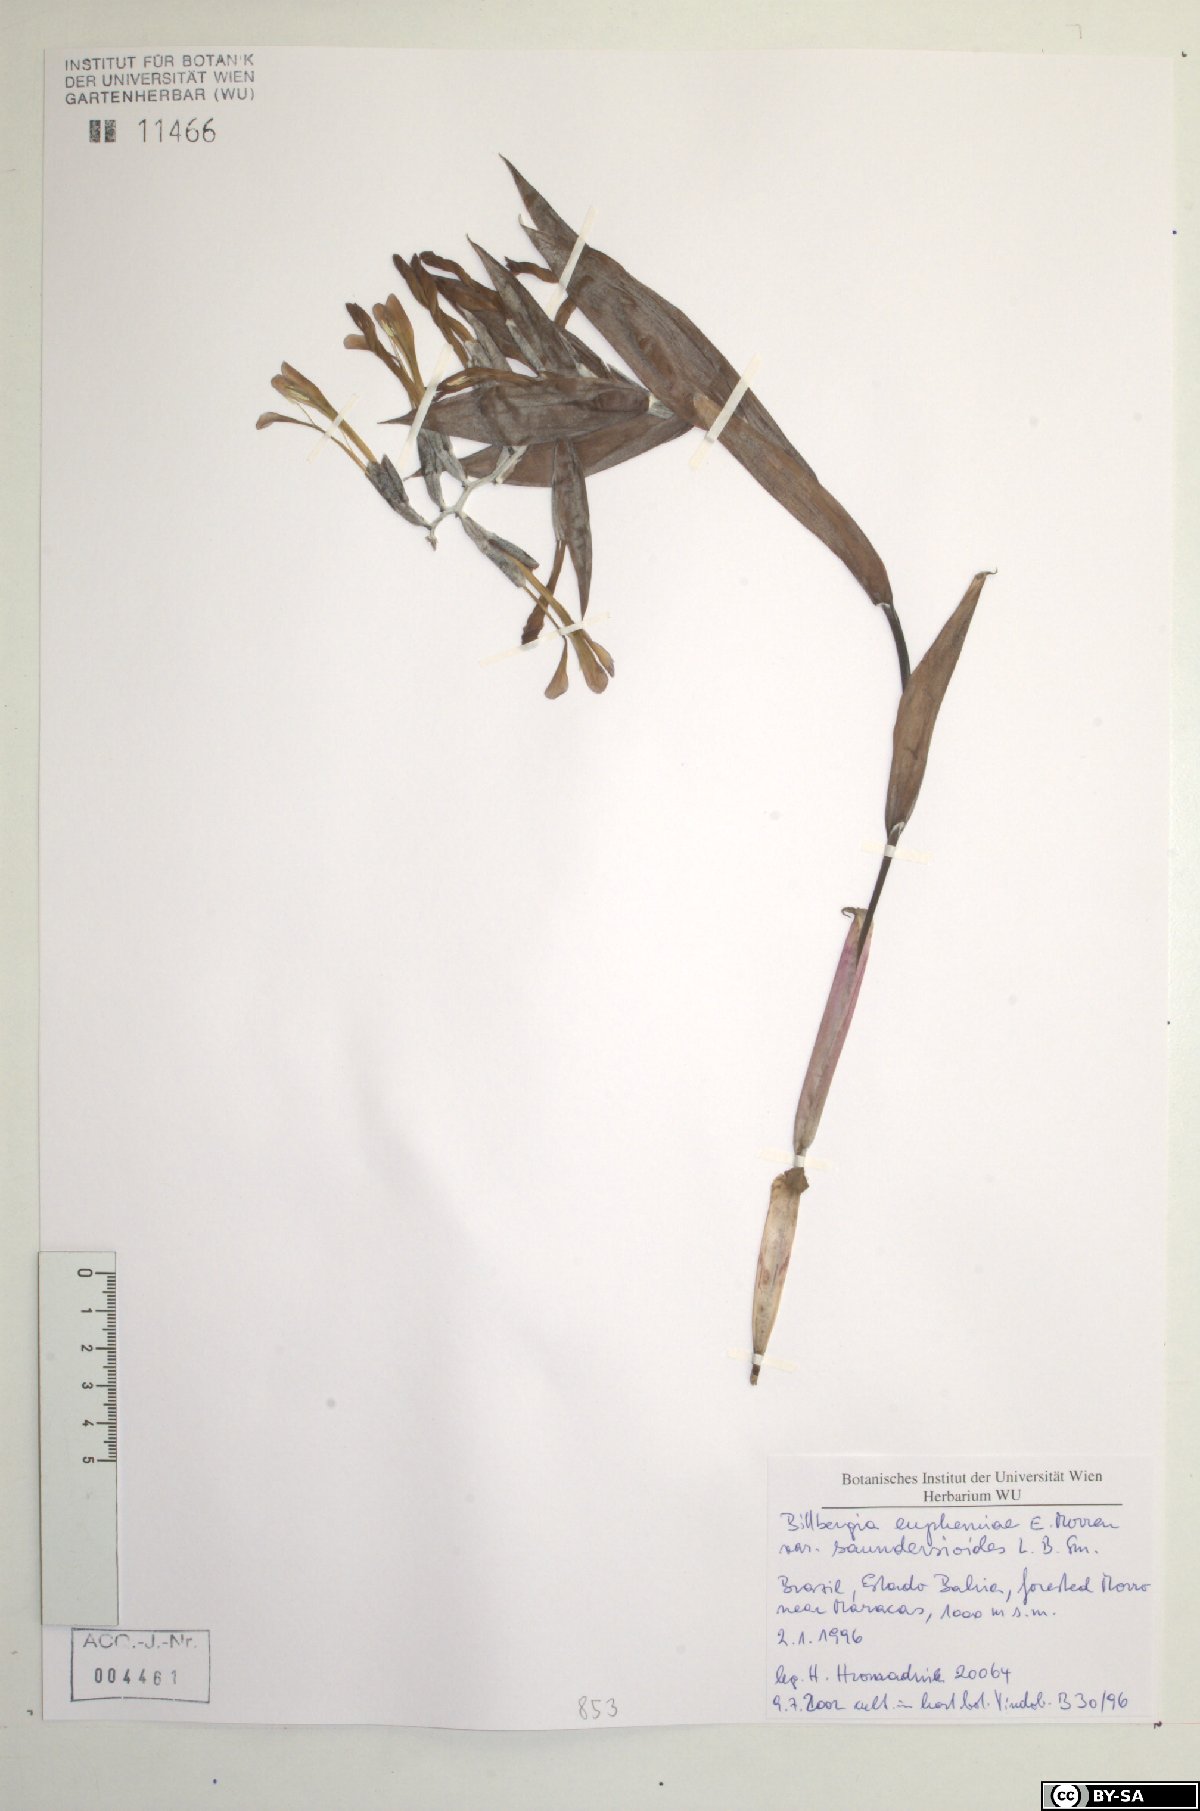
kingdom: Plantae
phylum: Tracheophyta
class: Liliopsida
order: Poales
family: Bromeliaceae
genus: Billbergia
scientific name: Billbergia euphemiae
